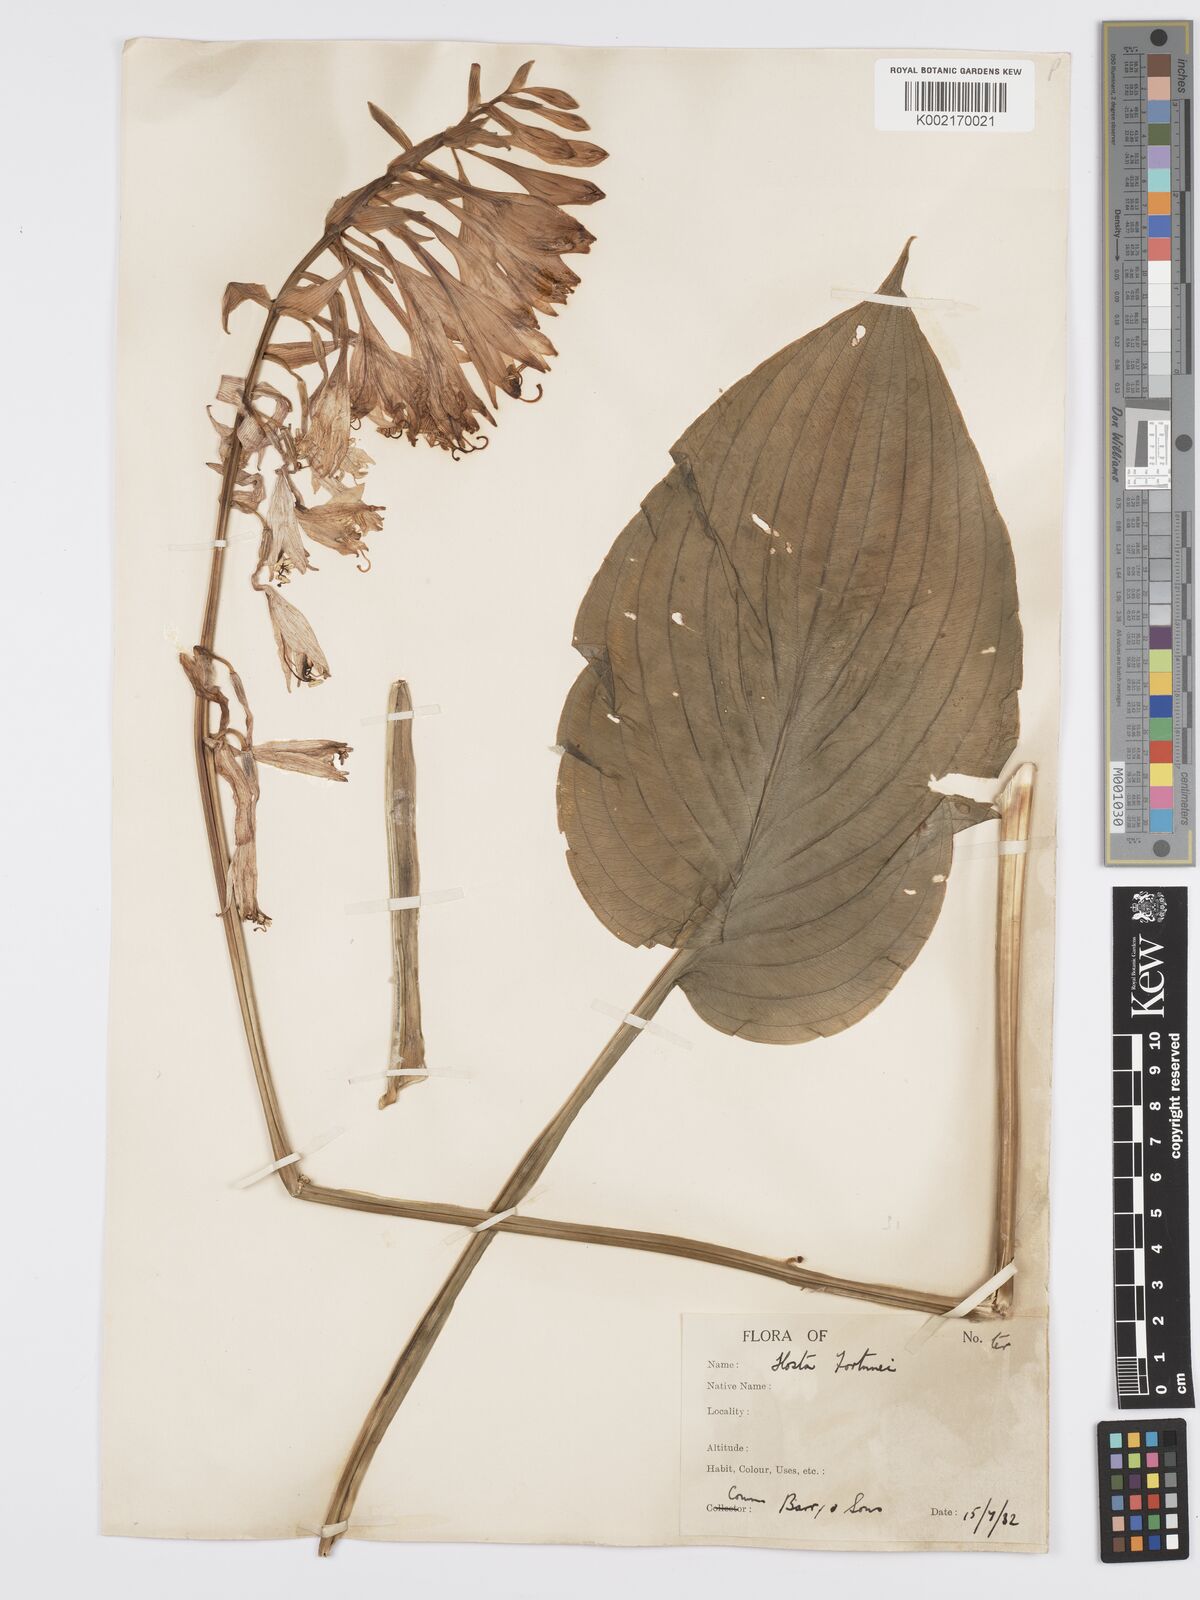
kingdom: Plantae
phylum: Tracheophyta
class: Liliopsida
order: Asparagales
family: Asparagaceae
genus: Hosta
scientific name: Hosta sieboldiana
